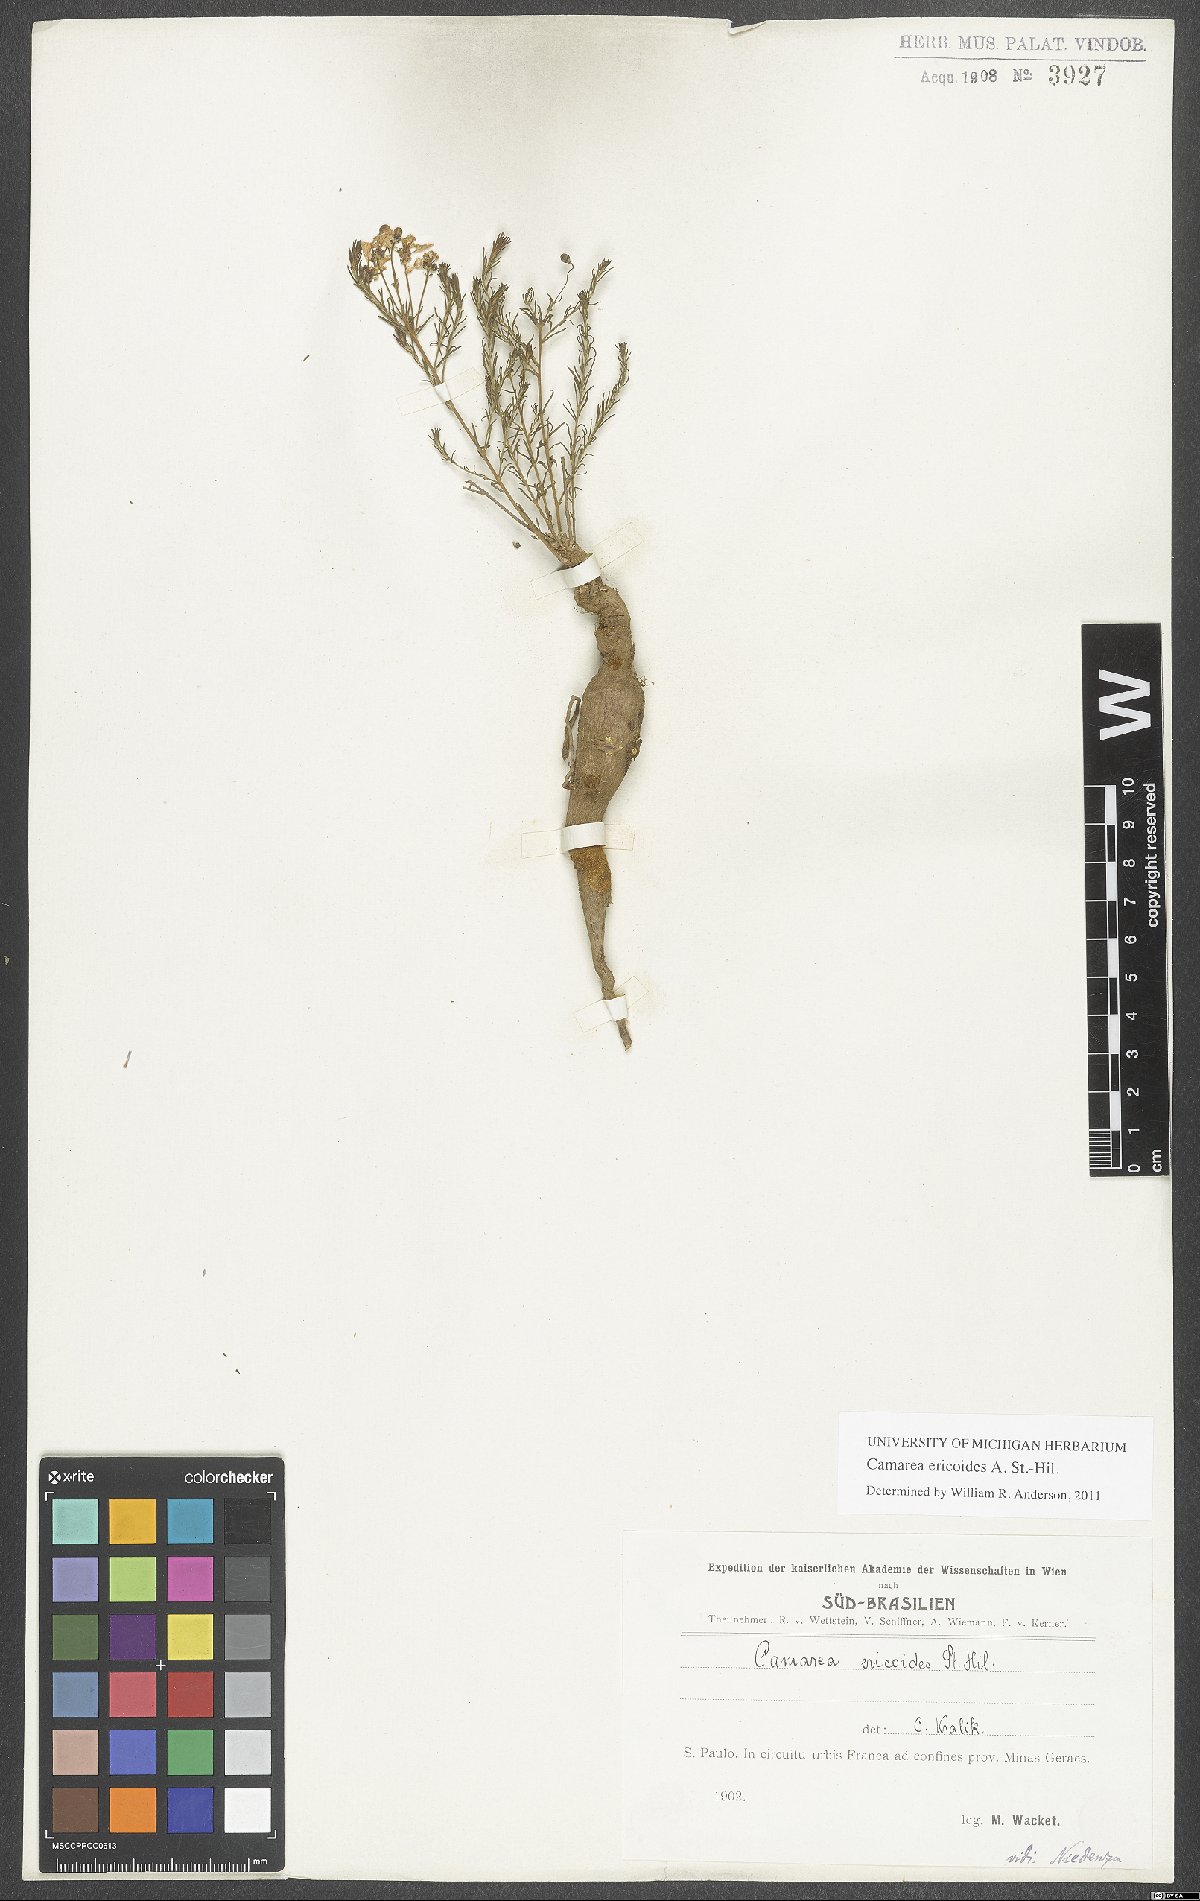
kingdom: Plantae
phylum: Tracheophyta
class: Magnoliopsida
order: Malpighiales
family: Malpighiaceae
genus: Camarea
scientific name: Camarea ericoides
